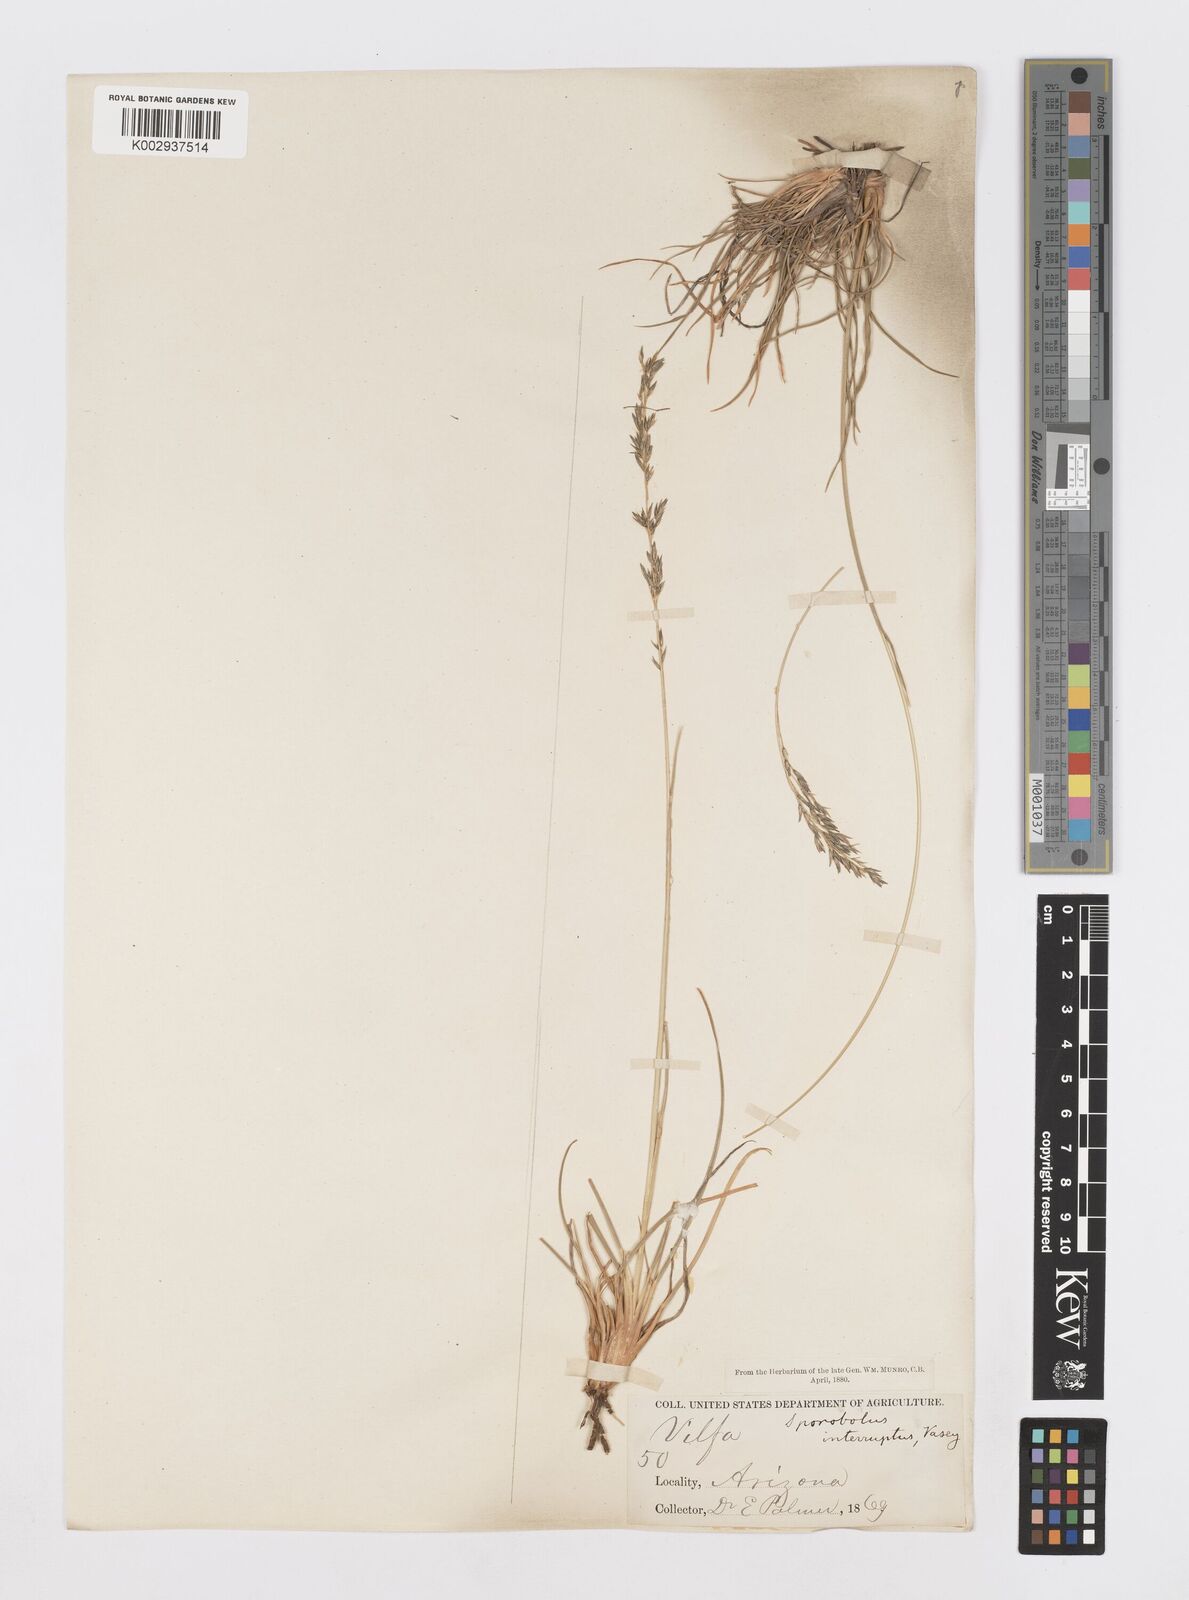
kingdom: Plantae
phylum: Tracheophyta
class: Liliopsida
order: Poales
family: Poaceae
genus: Sporobolus
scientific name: Sporobolus interruptus
